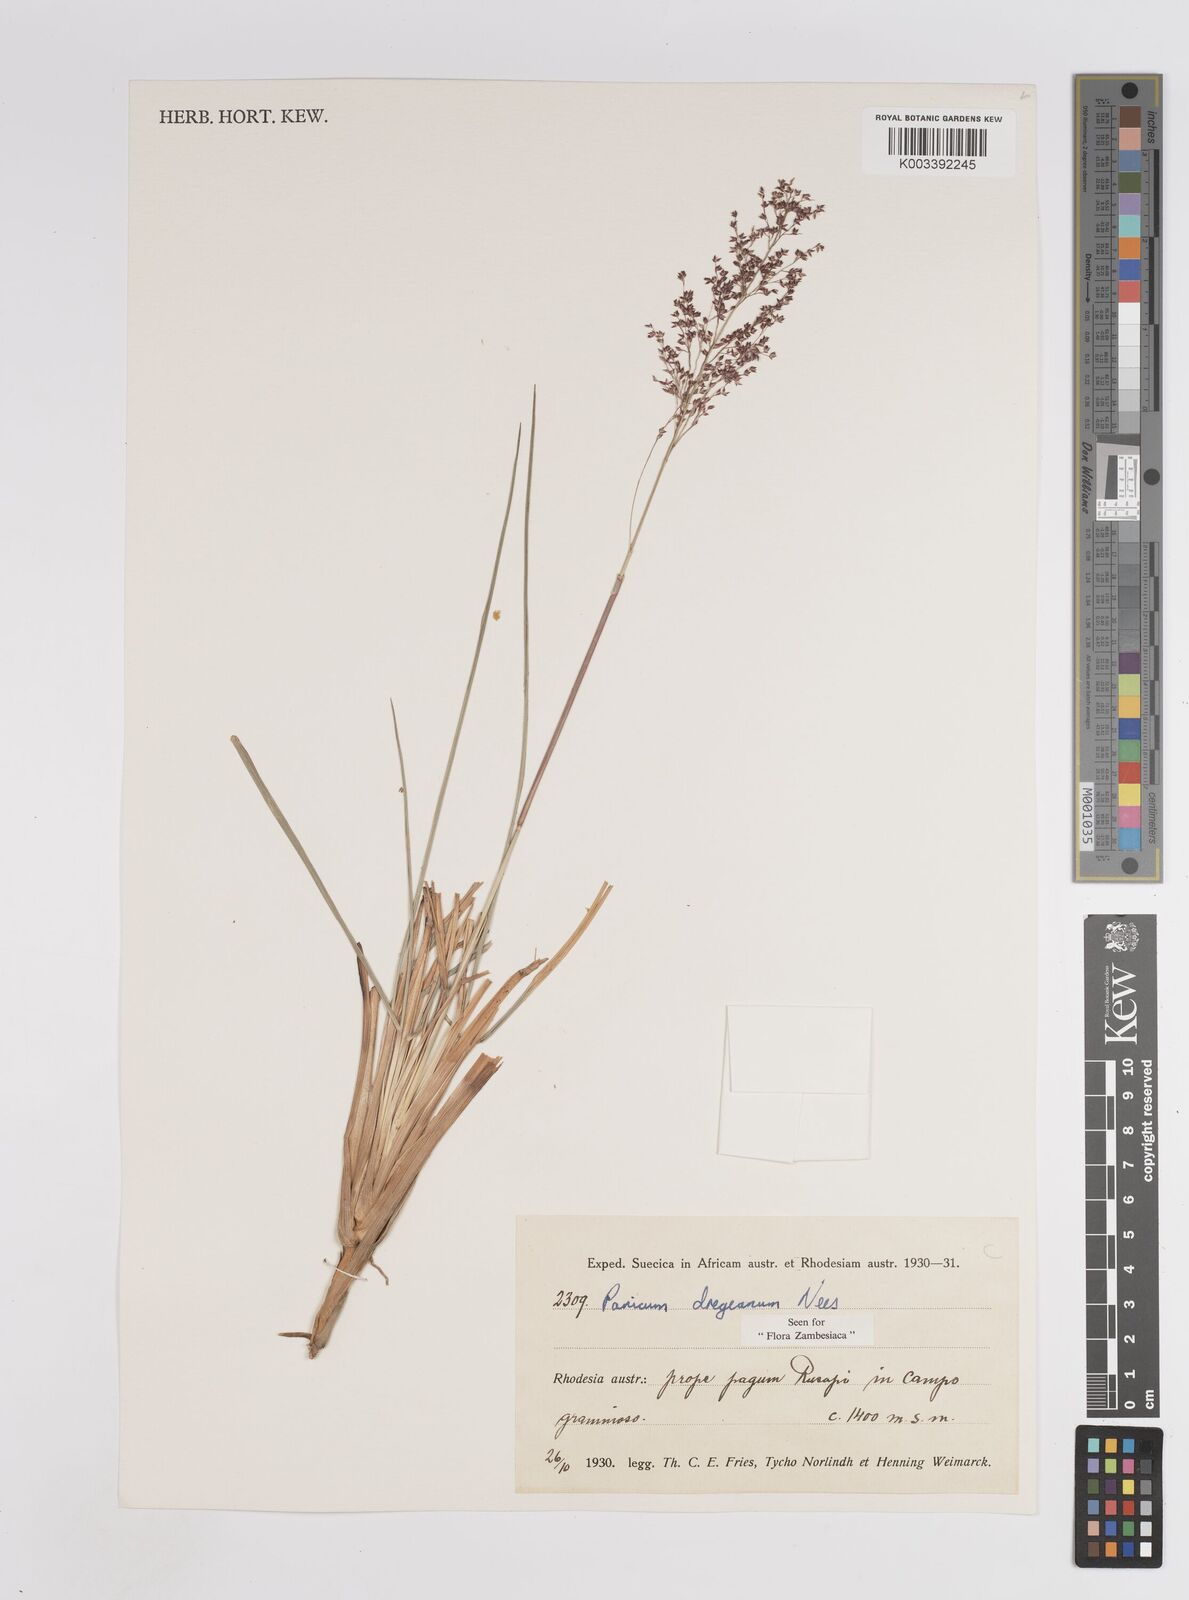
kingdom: Plantae
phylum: Tracheophyta
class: Liliopsida
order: Poales
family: Poaceae
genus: Panicum
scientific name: Panicum dregeanum
